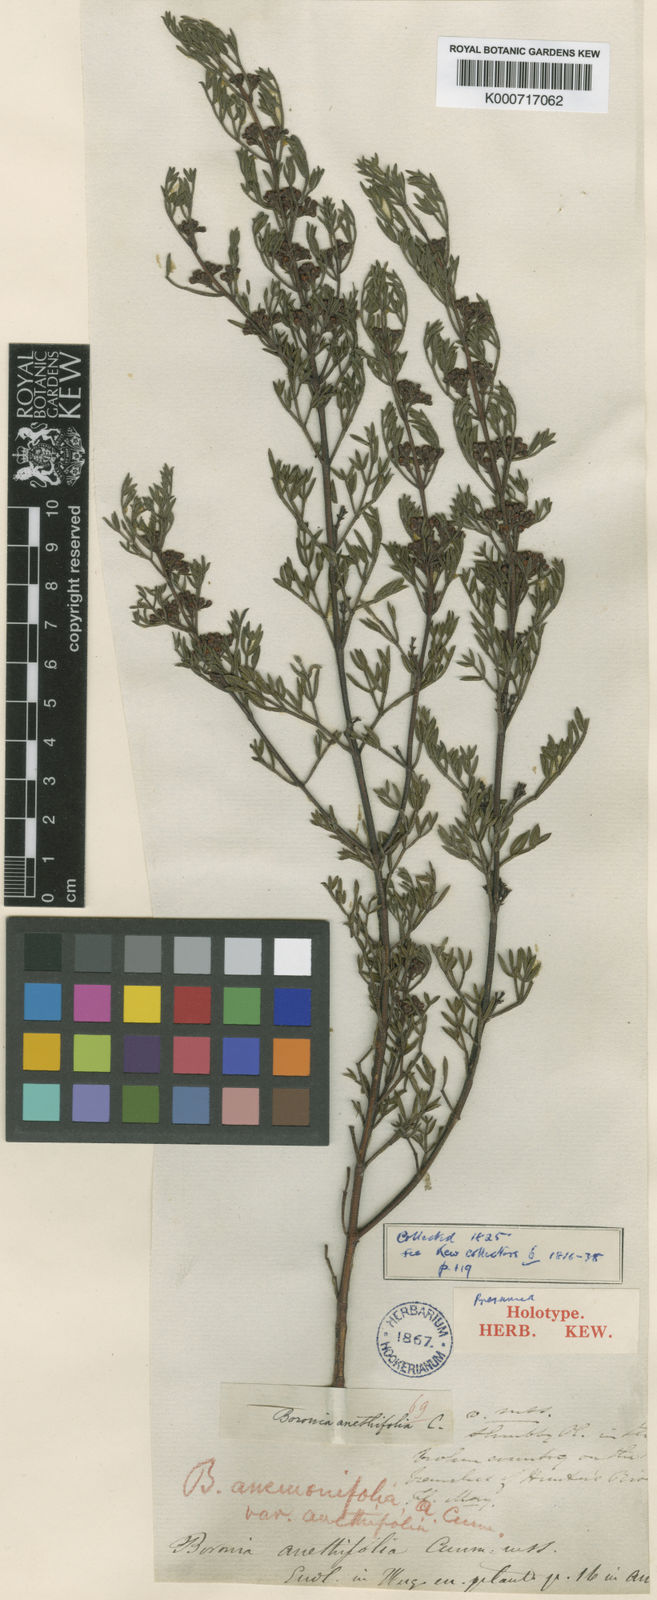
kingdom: Plantae
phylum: Tracheophyta
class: Magnoliopsida
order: Sapindales
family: Rutaceae
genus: Cyanothamnus
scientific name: Cyanothamnus quadrangulus
